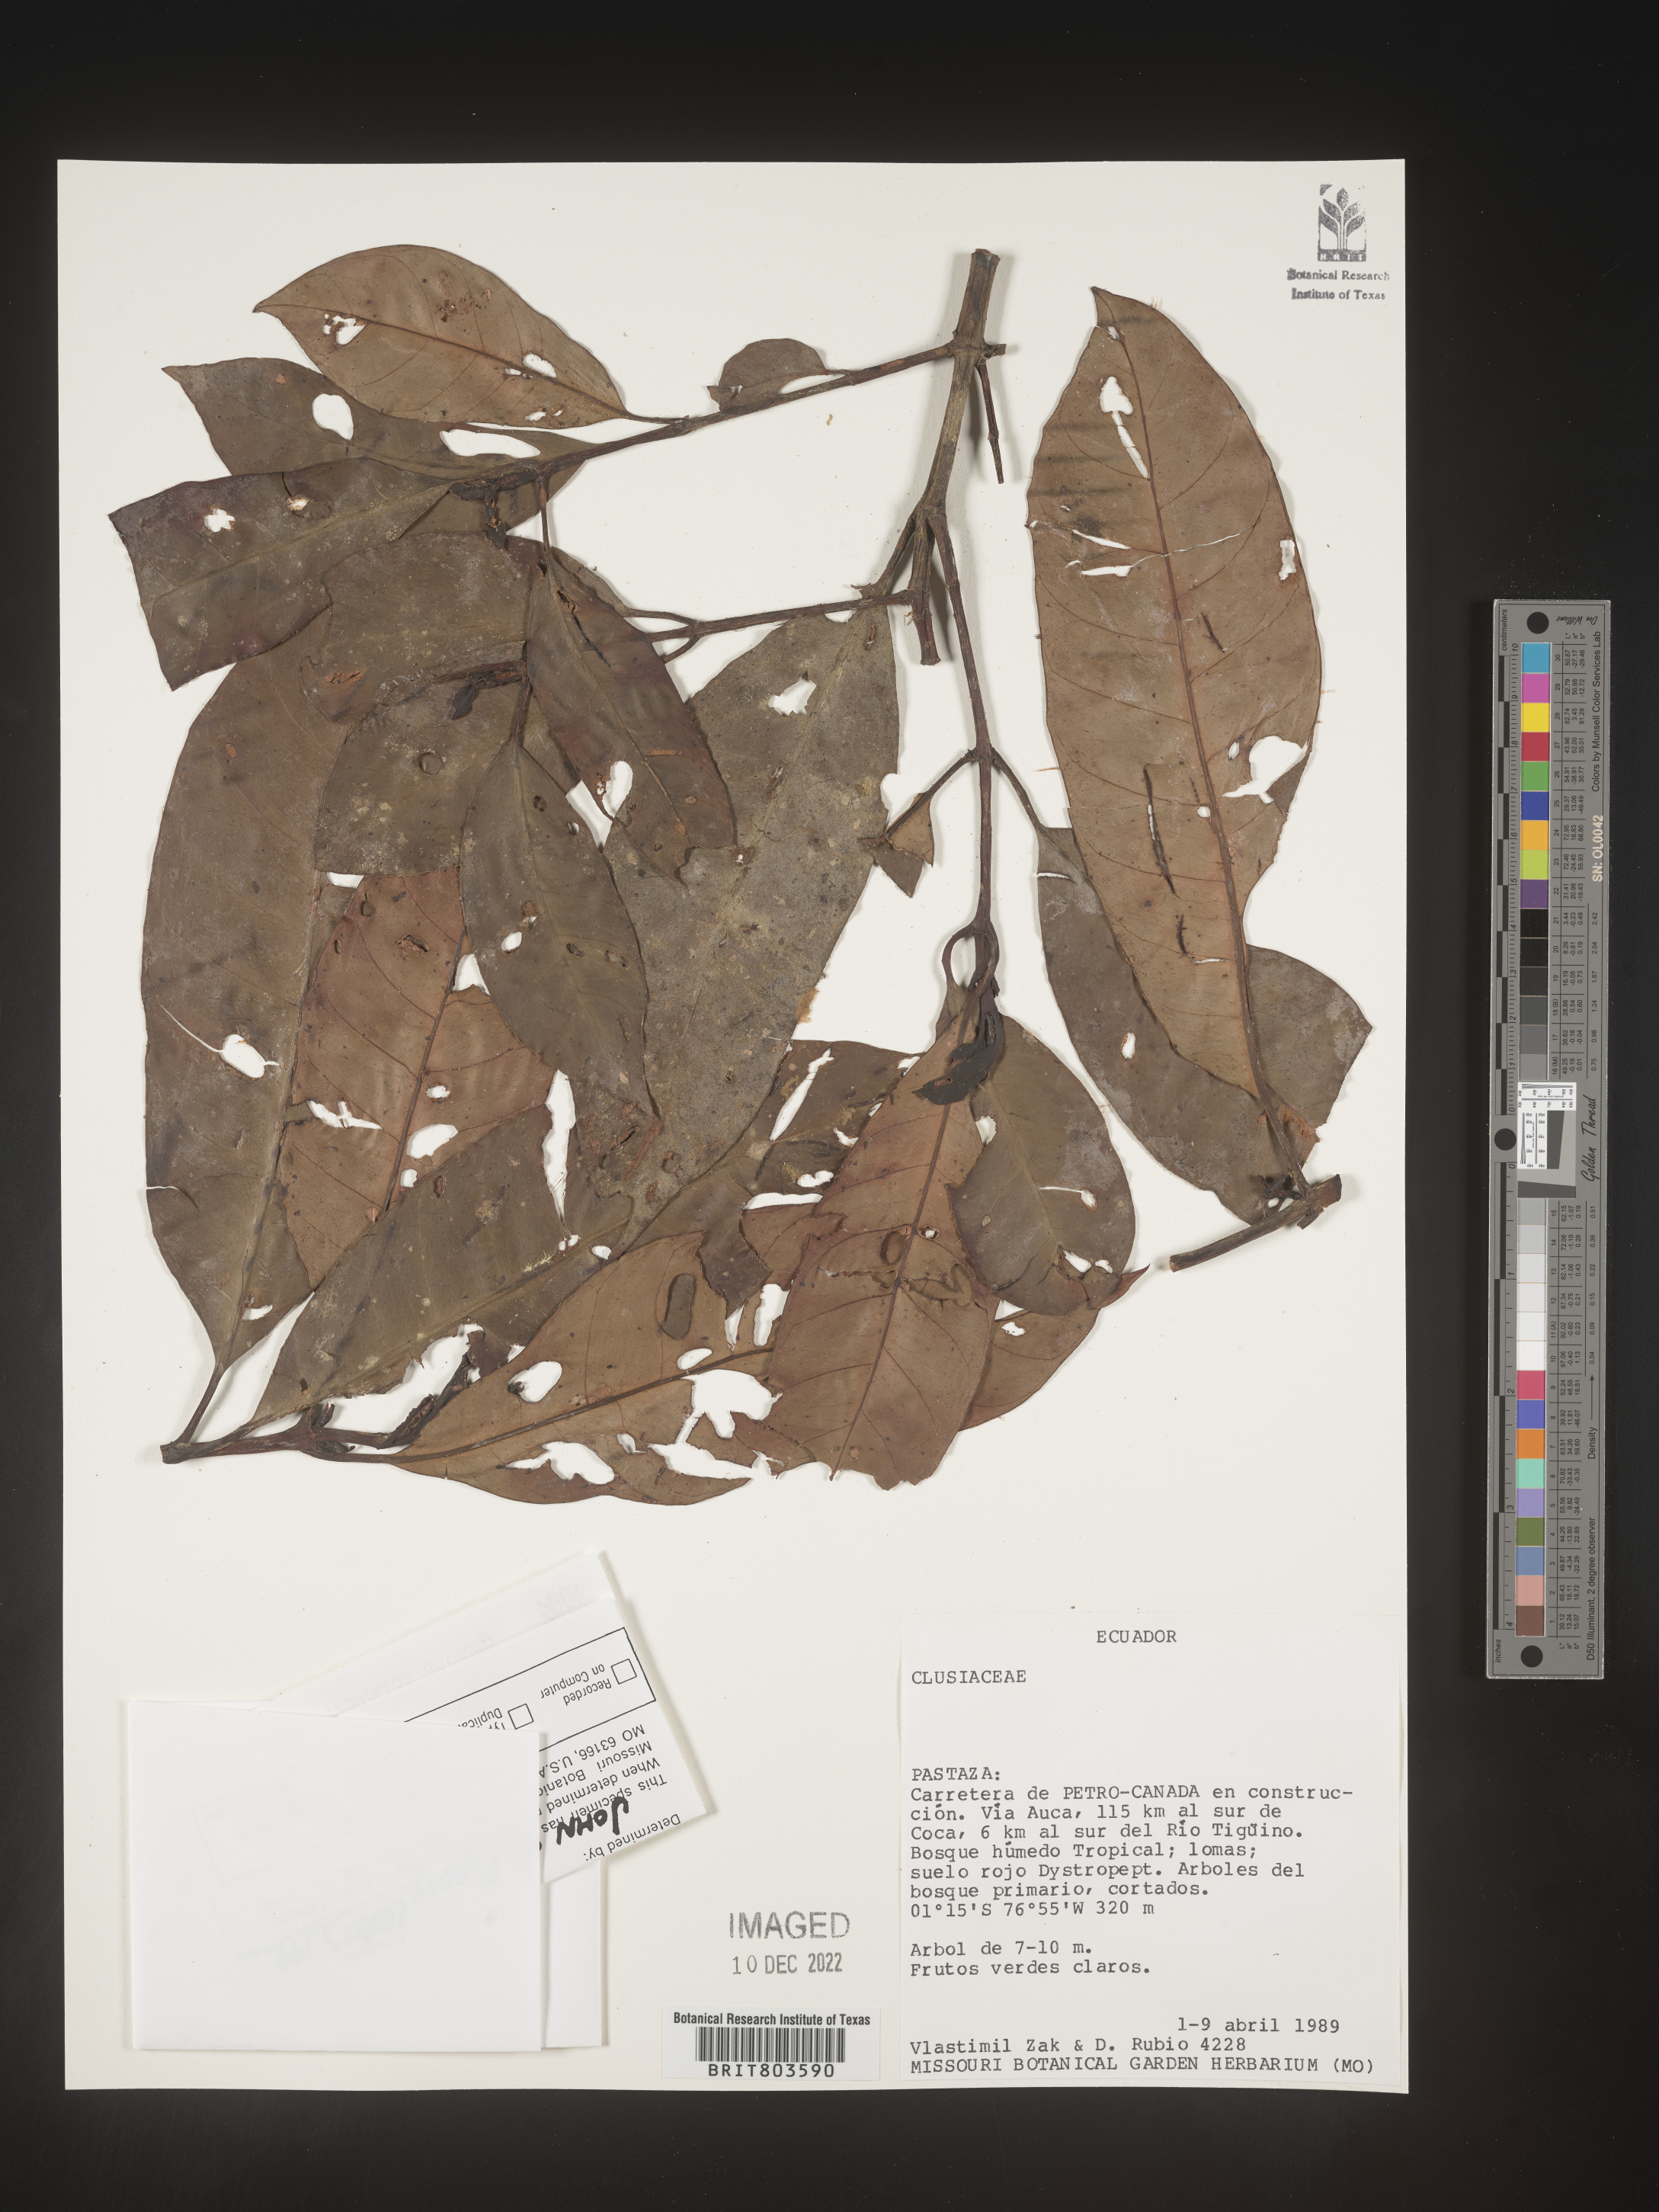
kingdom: Plantae
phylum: Tracheophyta
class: Magnoliopsida
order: Malpighiales
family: Clusiaceae
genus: Tovomita
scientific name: Tovomita
